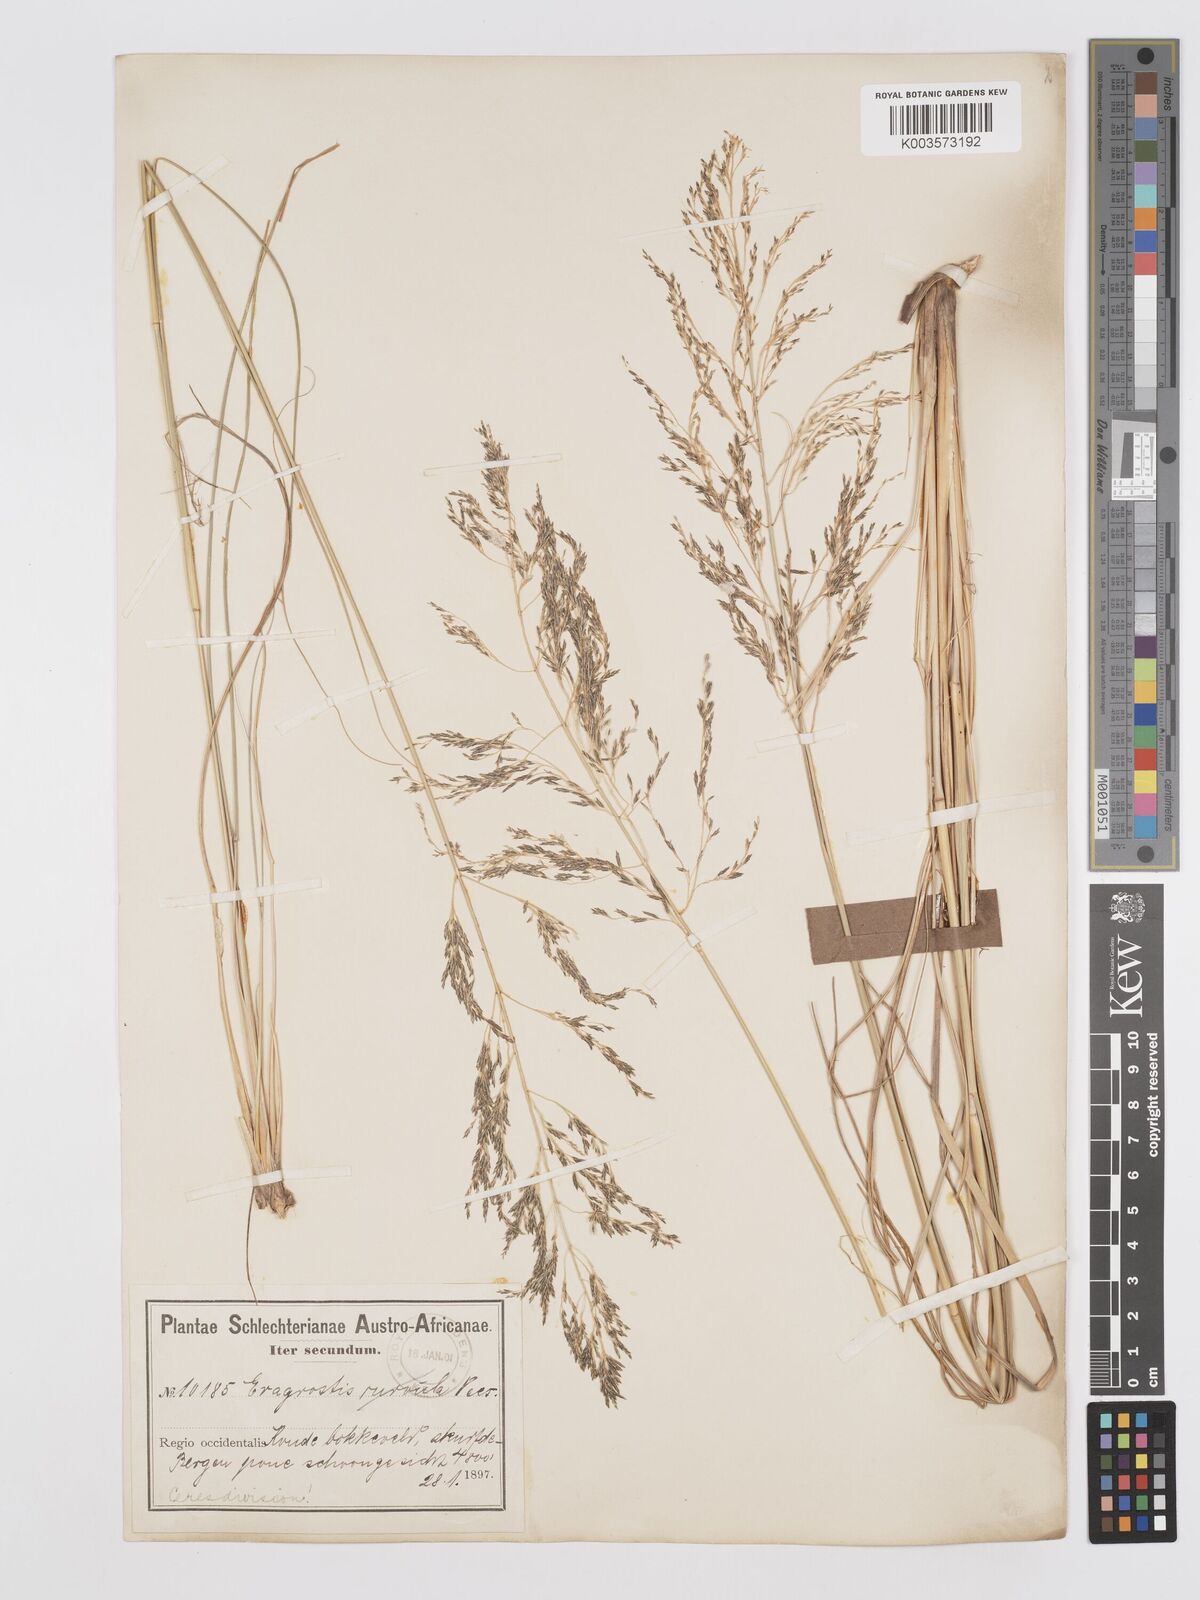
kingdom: Plantae
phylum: Tracheophyta
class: Liliopsida
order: Poales
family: Poaceae
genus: Eragrostis
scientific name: Eragrostis curvula
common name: African love-grass
